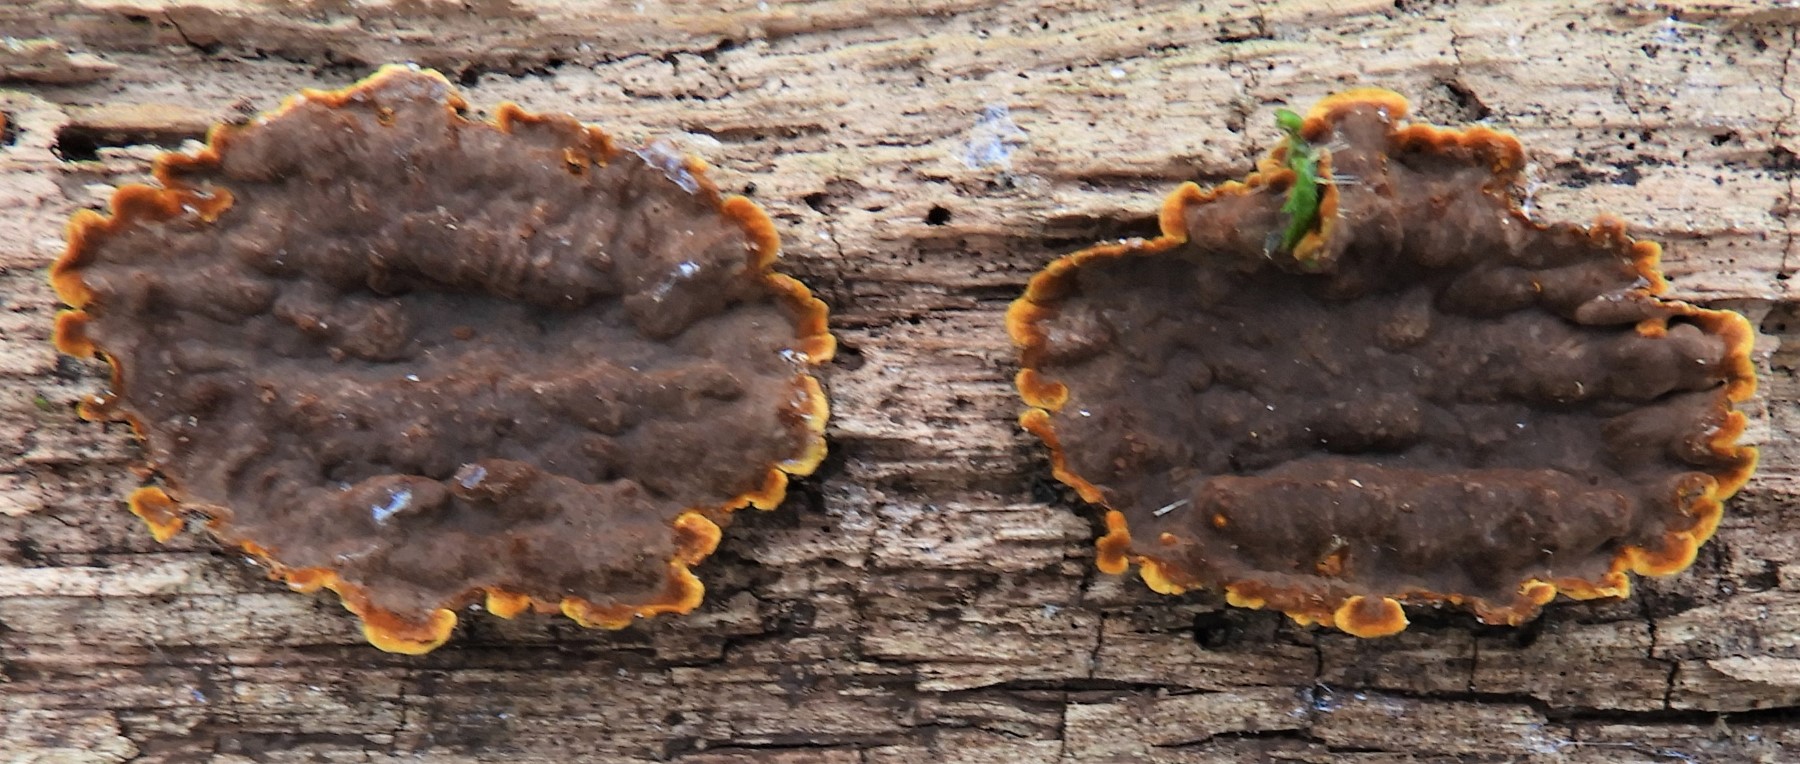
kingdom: Fungi
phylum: Basidiomycota
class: Agaricomycetes
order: Hymenochaetales
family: Hymenochaetaceae
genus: Hymenochaete
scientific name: Hymenochaete rubiginosa
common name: stiv ruslædersvamp
